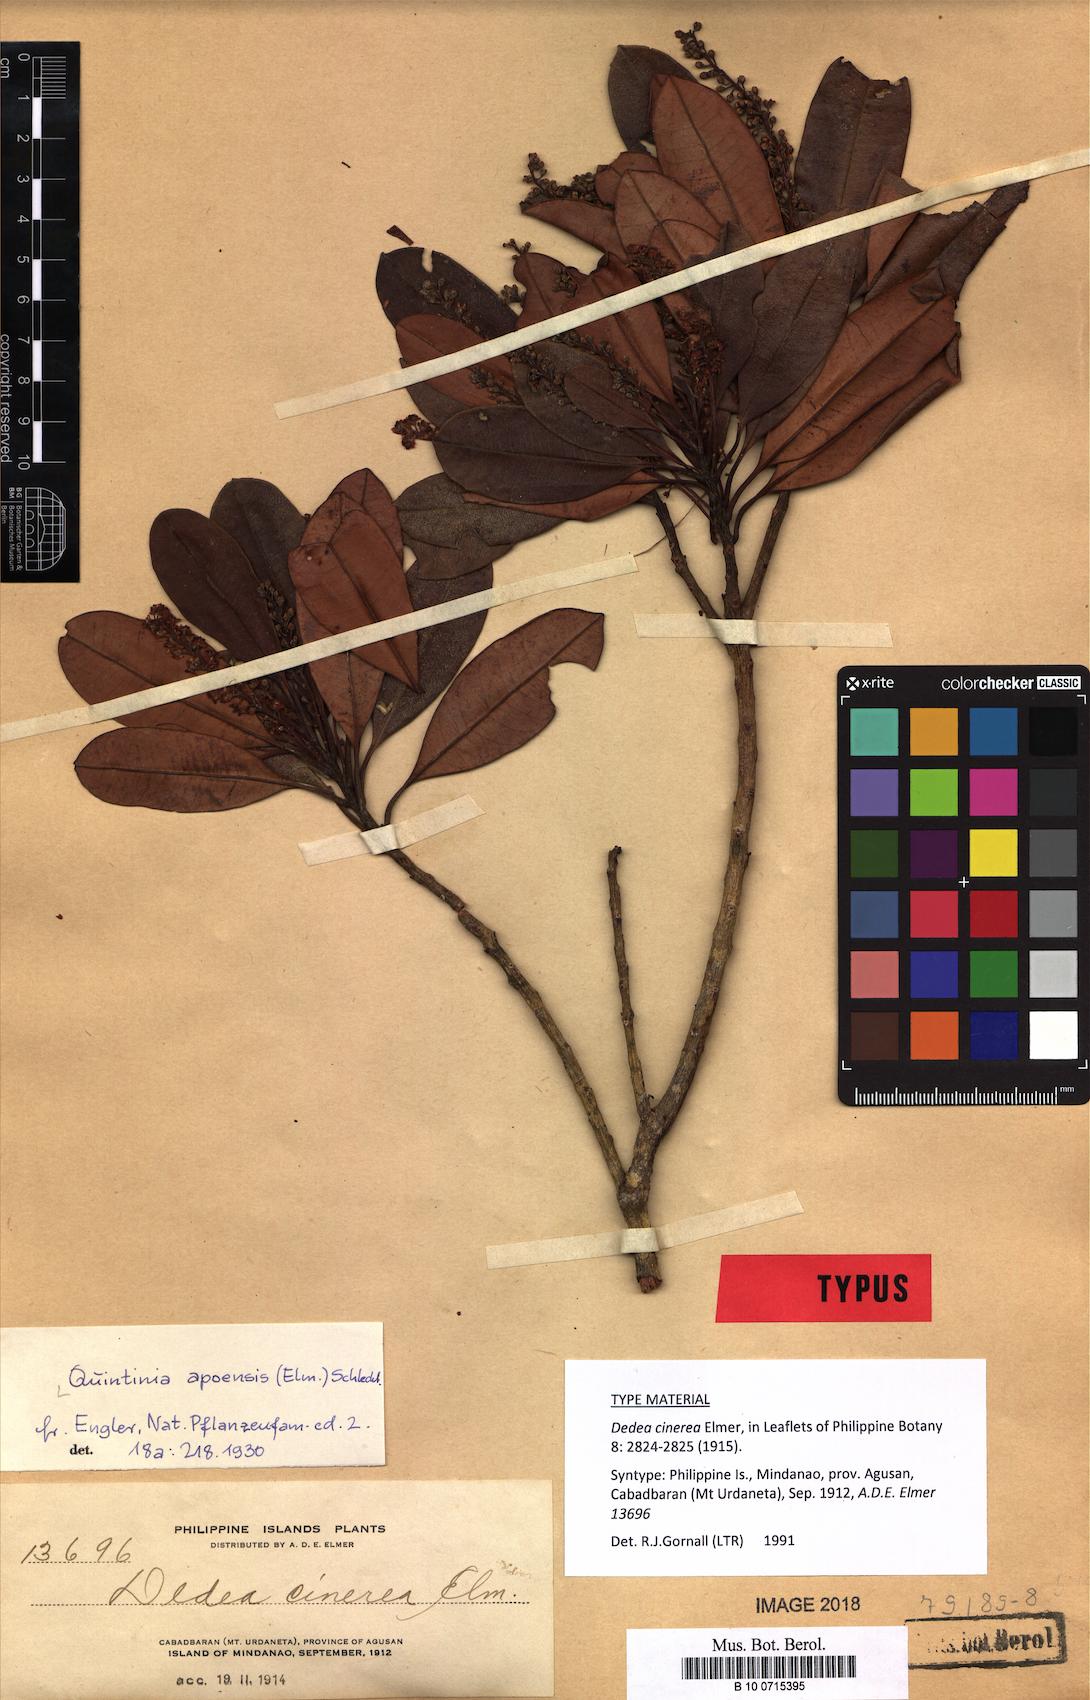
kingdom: Plantae
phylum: Tracheophyta
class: Magnoliopsida
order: Paracryphiales
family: Paracryphiaceae
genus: Quintinia
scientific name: Quintinia apoensis
